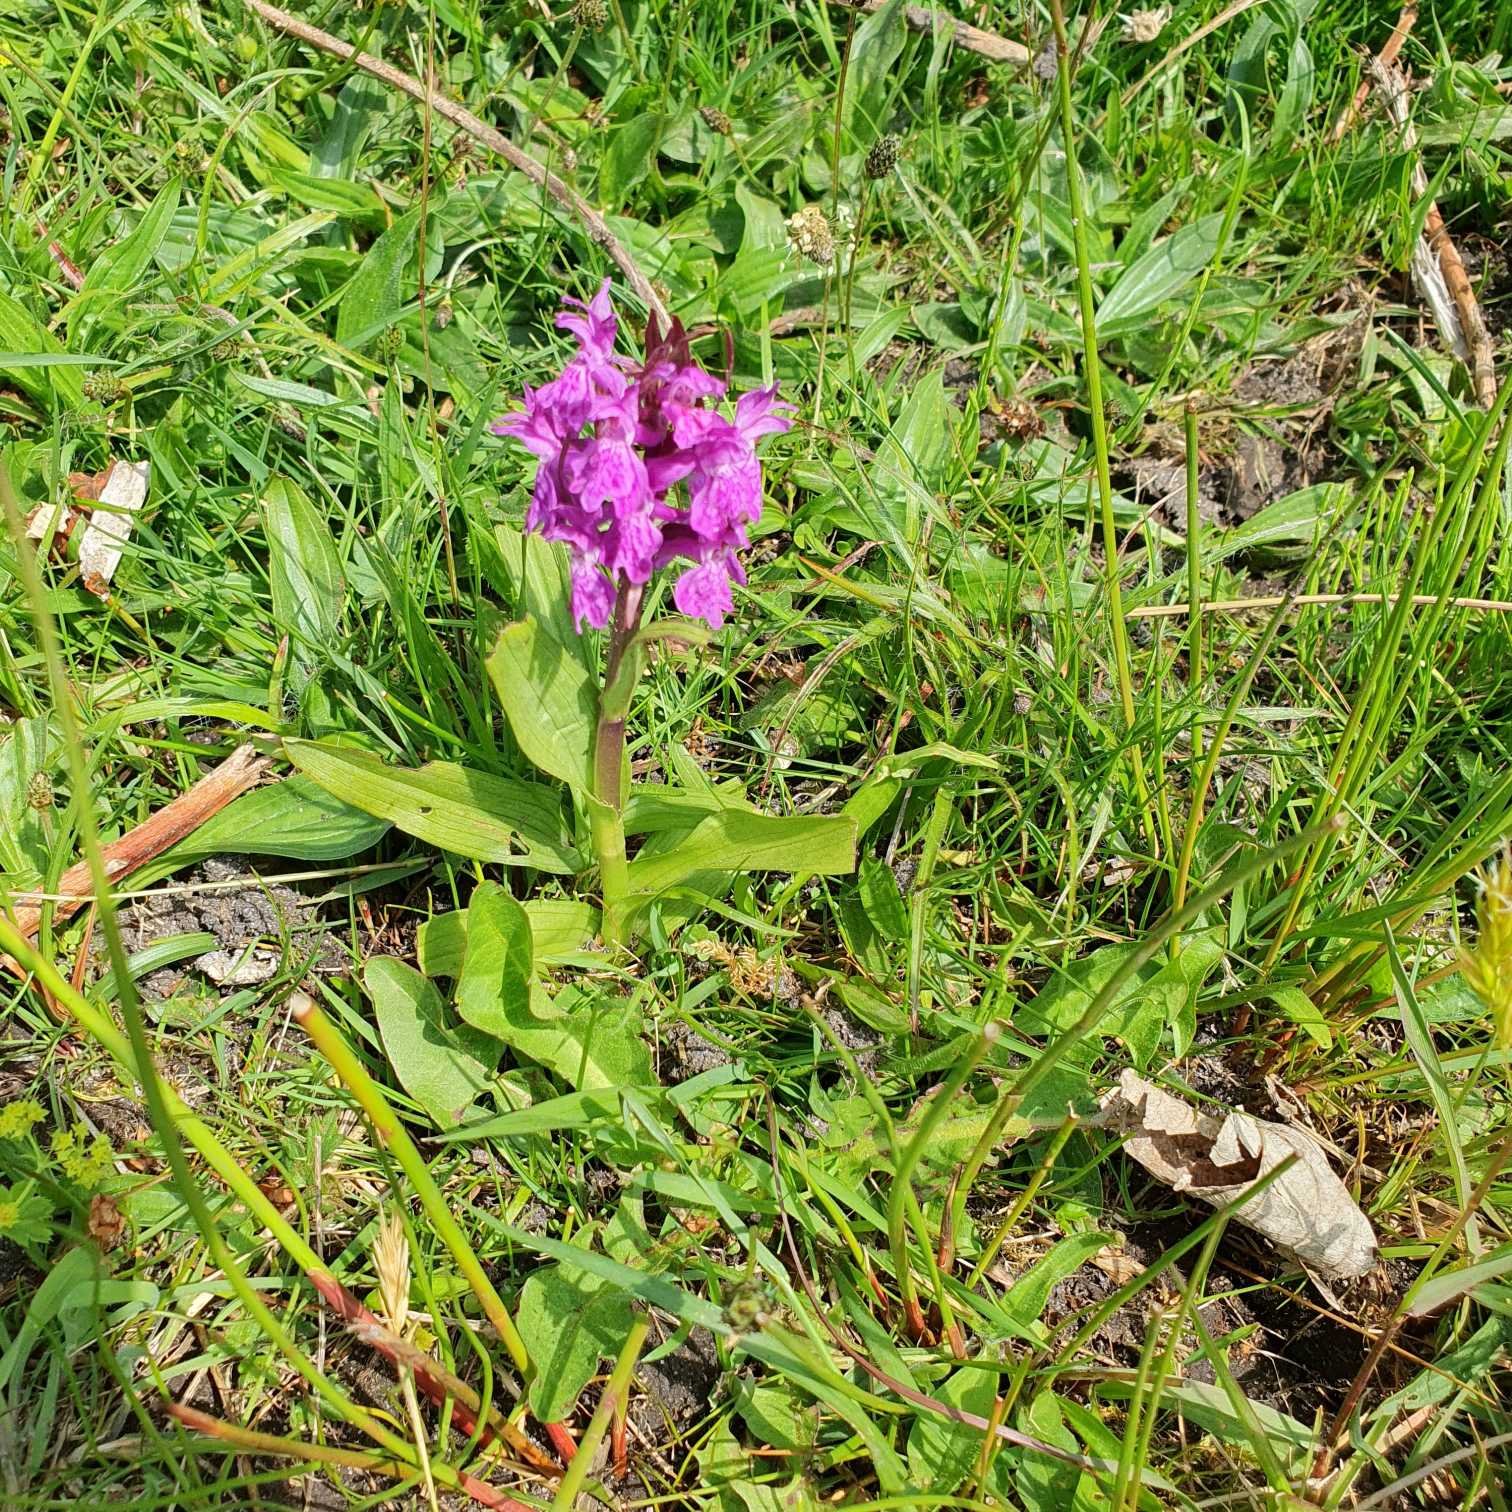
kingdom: Plantae
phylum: Tracheophyta
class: Liliopsida
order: Asparagales
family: Orchidaceae
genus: Dactylorhiza
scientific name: Dactylorhiza majalis
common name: Maj-gøgeurt
